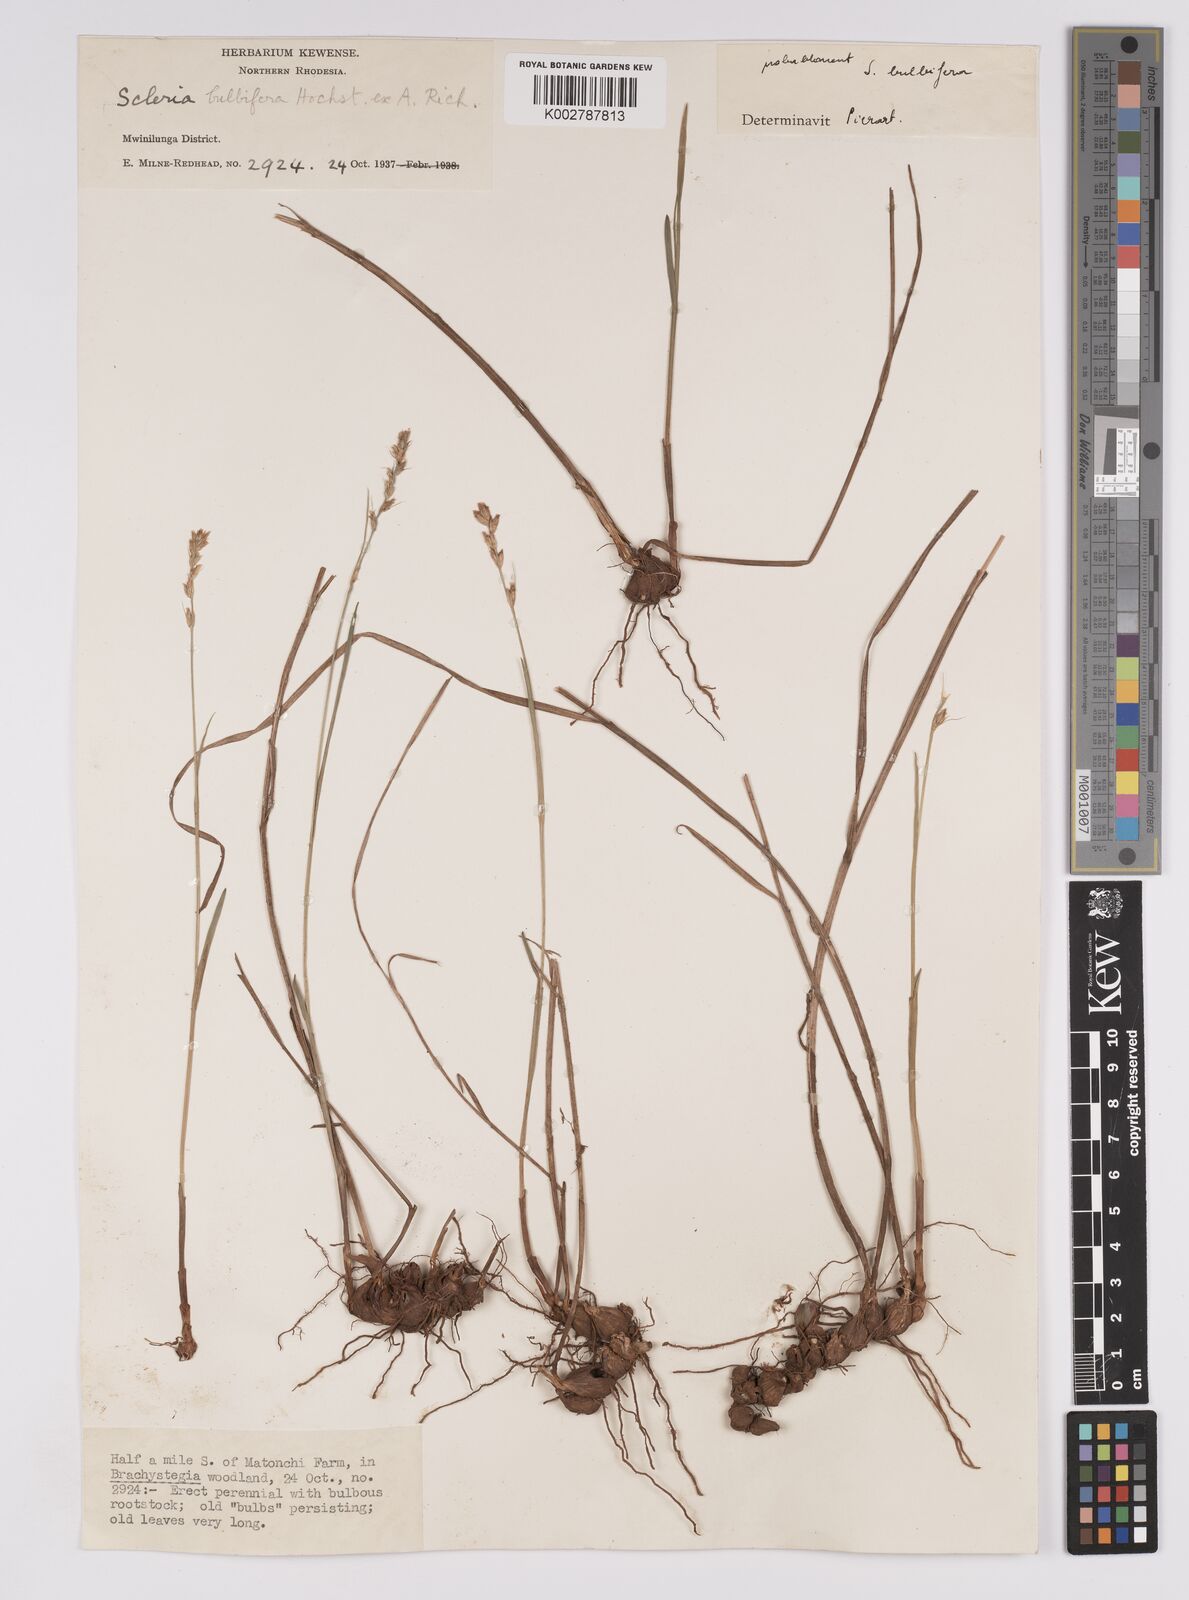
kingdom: Plantae
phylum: Tracheophyta
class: Liliopsida
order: Poales
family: Cyperaceae
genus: Scleria
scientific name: Scleria bulbifera
